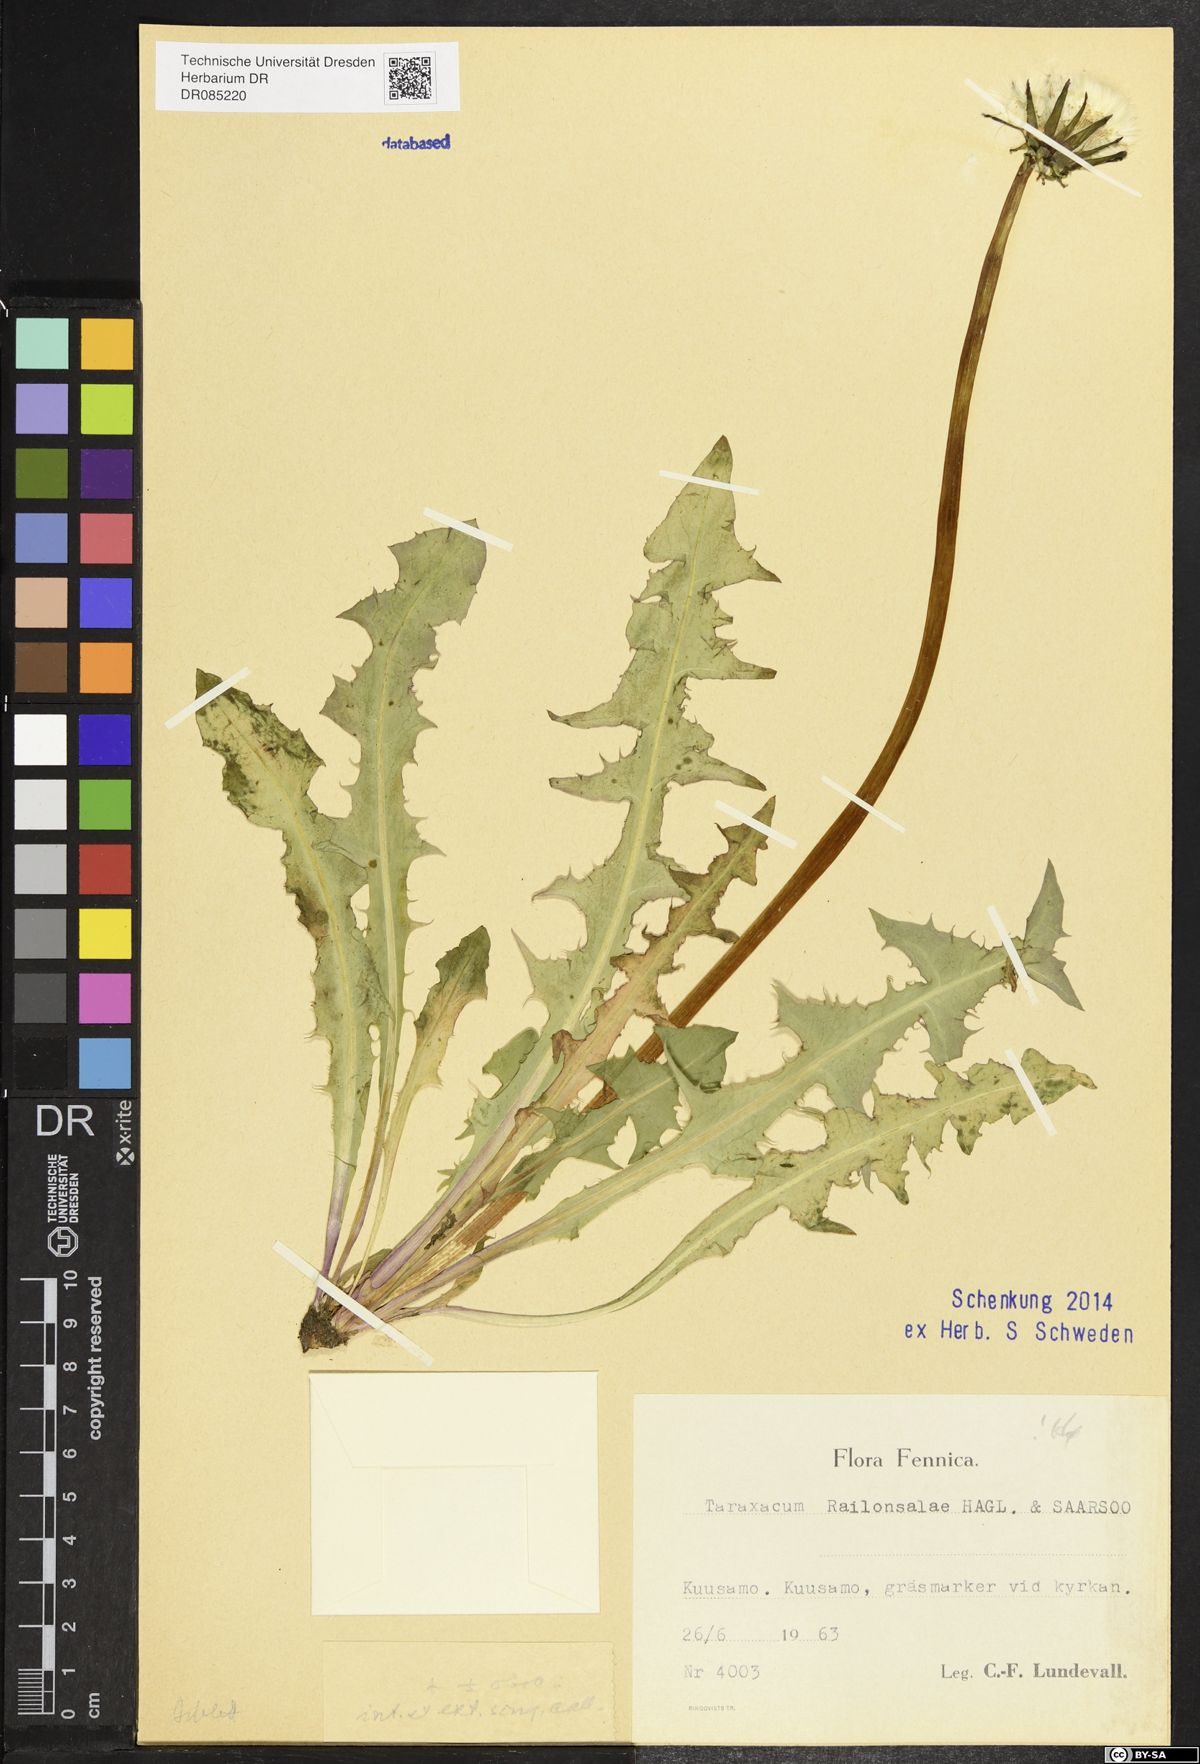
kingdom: Plantae
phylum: Tracheophyta
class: Magnoliopsida
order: Asterales
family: Asteraceae
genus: Taraxacum
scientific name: Taraxacum railonsalae
